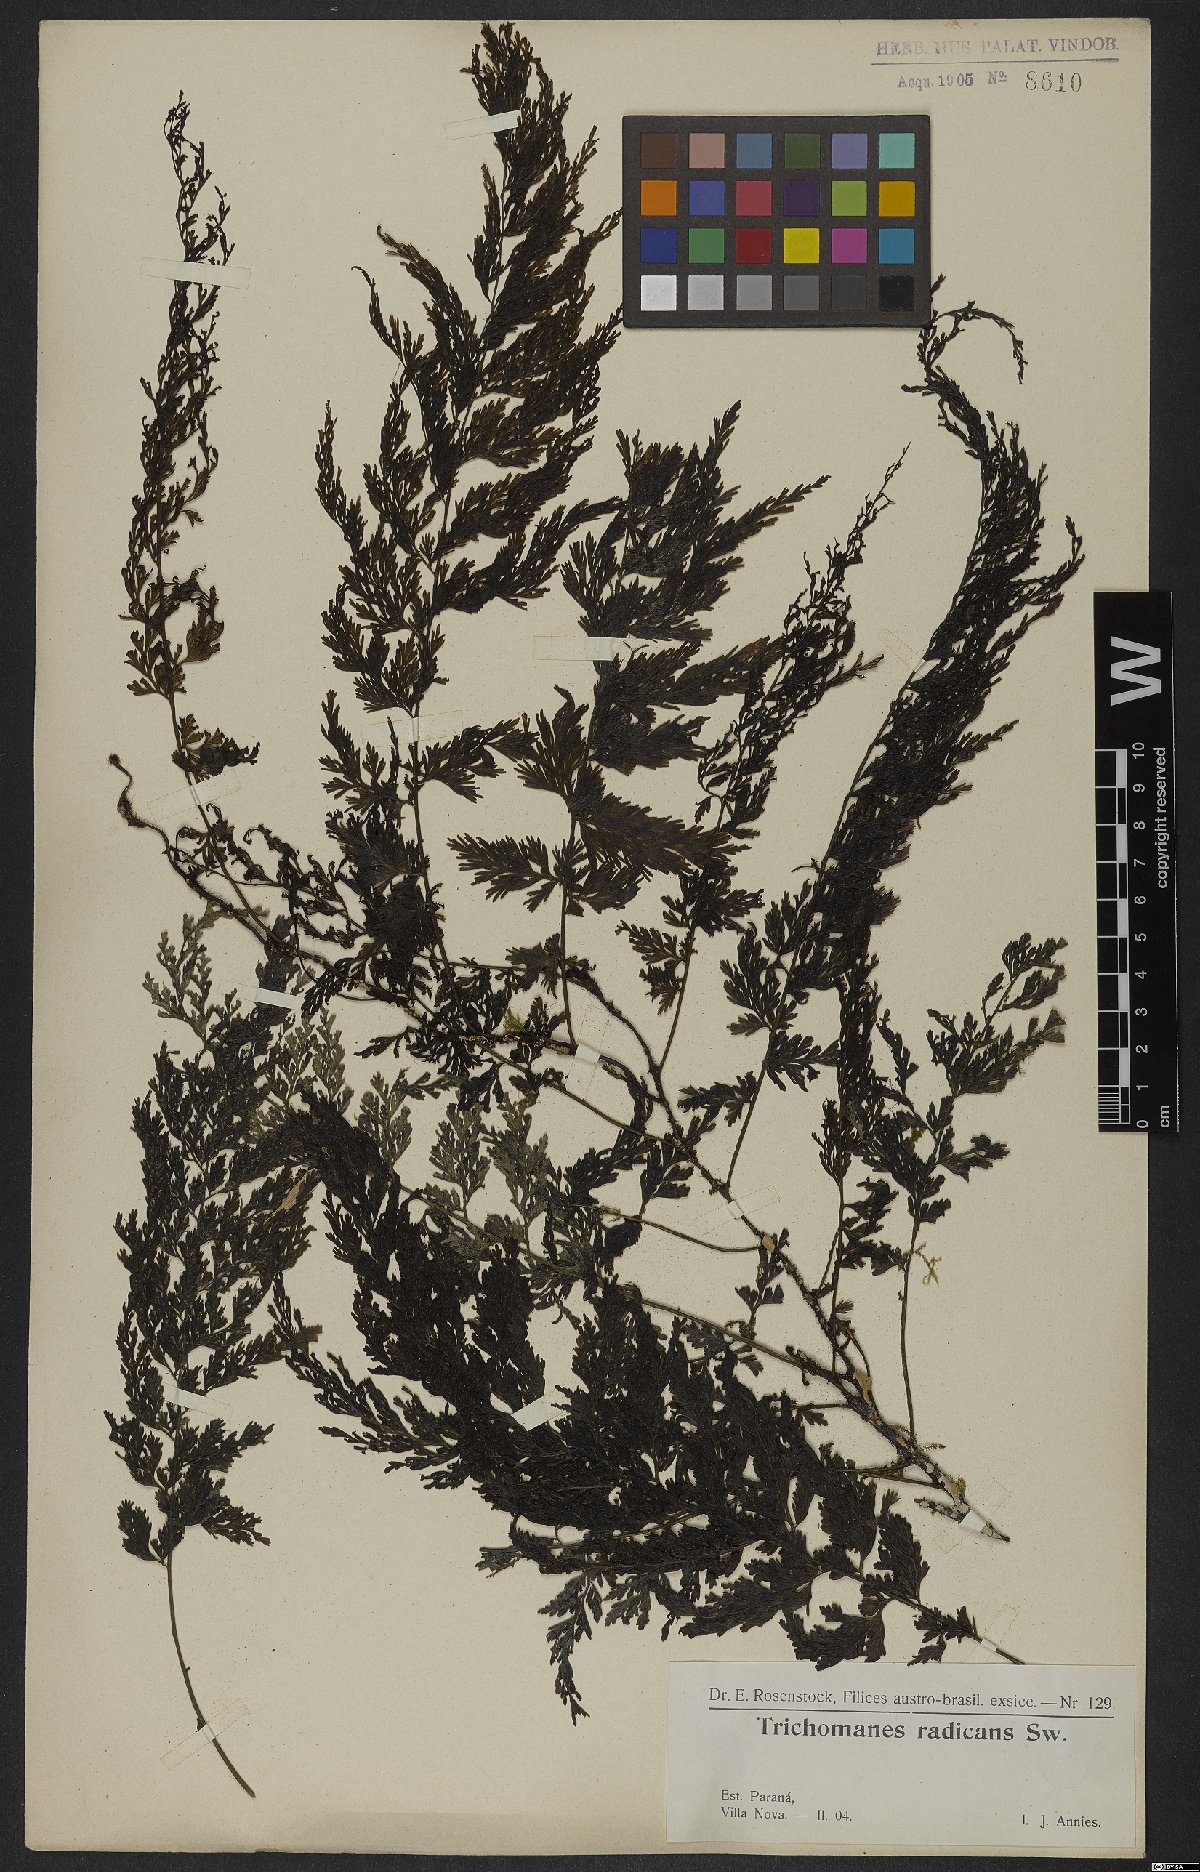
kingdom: Plantae
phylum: Tracheophyta
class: Polypodiopsida
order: Hymenophyllales
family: Hymenophyllaceae
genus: Vandenboschia
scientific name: Vandenboschia radicans
